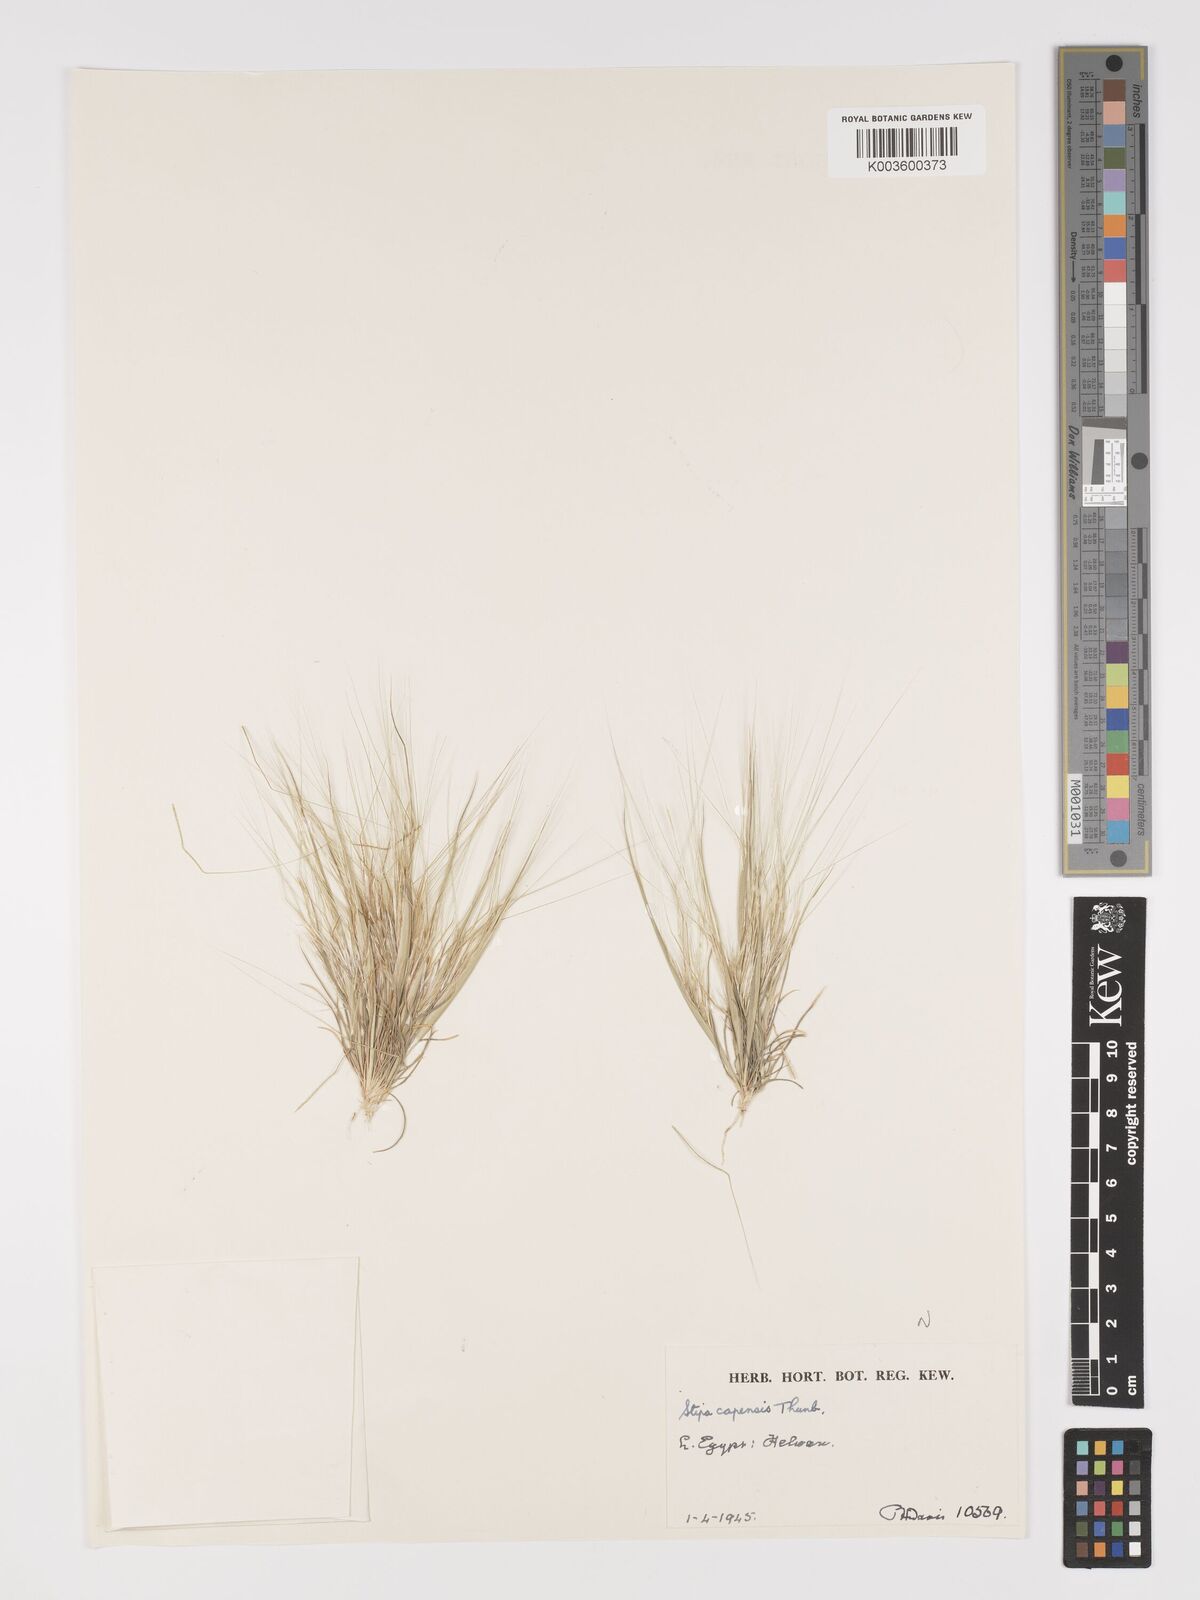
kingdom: Plantae
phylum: Tracheophyta
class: Liliopsida
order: Poales
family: Poaceae
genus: Stipellula
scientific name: Stipellula capensis
